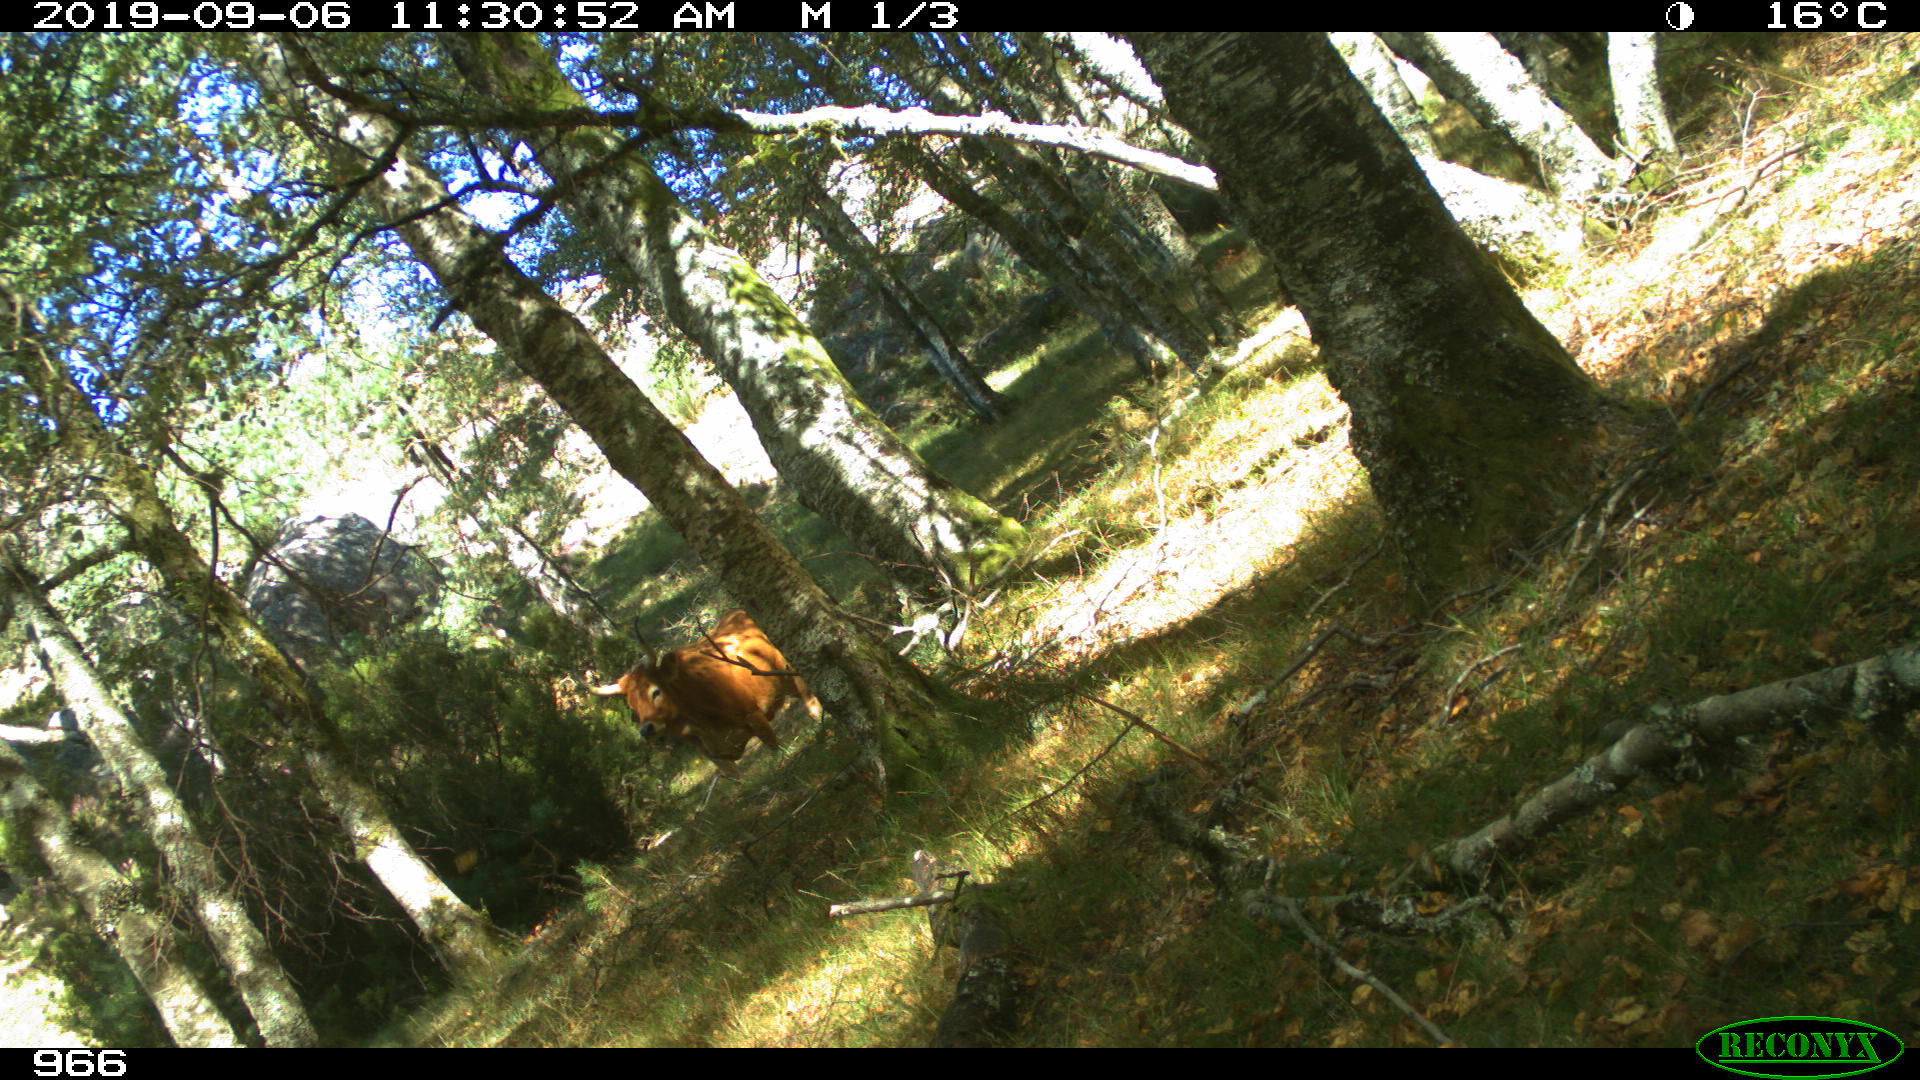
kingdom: Animalia
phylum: Chordata
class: Mammalia
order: Artiodactyla
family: Bovidae
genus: Bos
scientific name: Bos taurus
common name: Domesticated cattle
